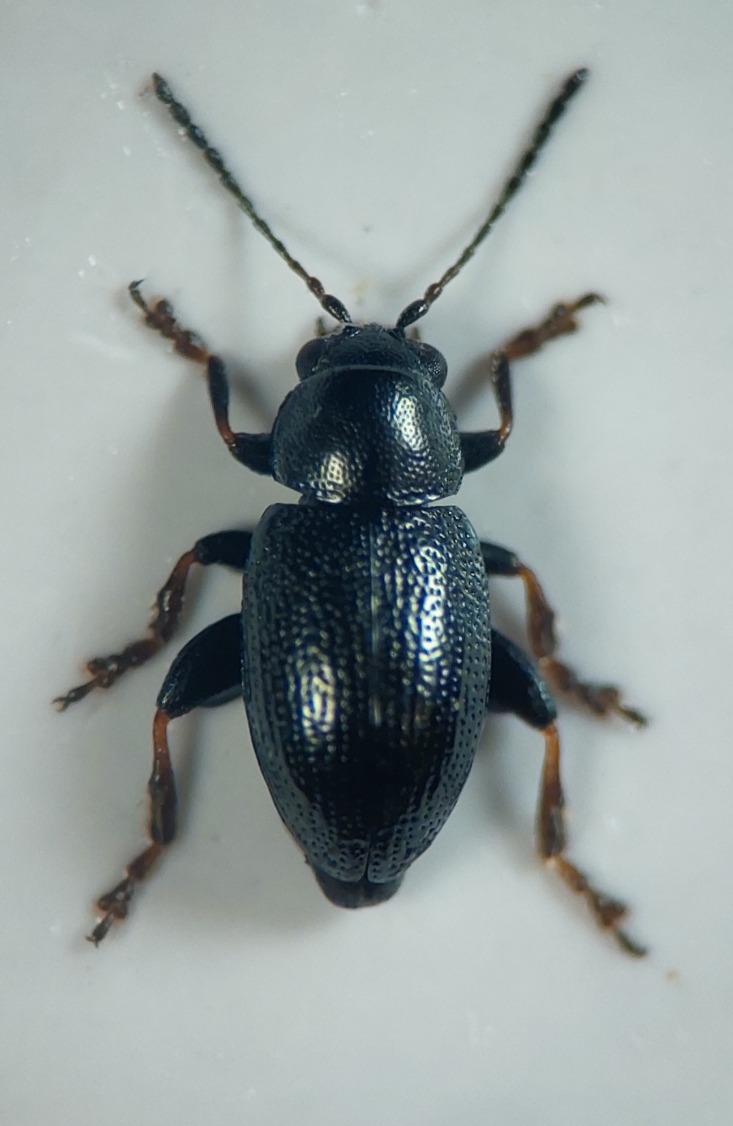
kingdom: Animalia
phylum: Arthropoda
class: Insecta
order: Coleoptera
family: Chrysomelidae
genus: Chaetocnema
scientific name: Chaetocnema subcoerulea
